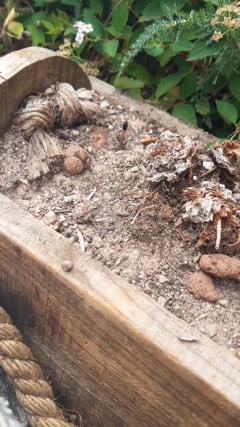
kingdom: Animalia
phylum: Arthropoda
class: Insecta
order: Hymenoptera
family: Sphecidae
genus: Ammophila
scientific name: Ammophila induta
